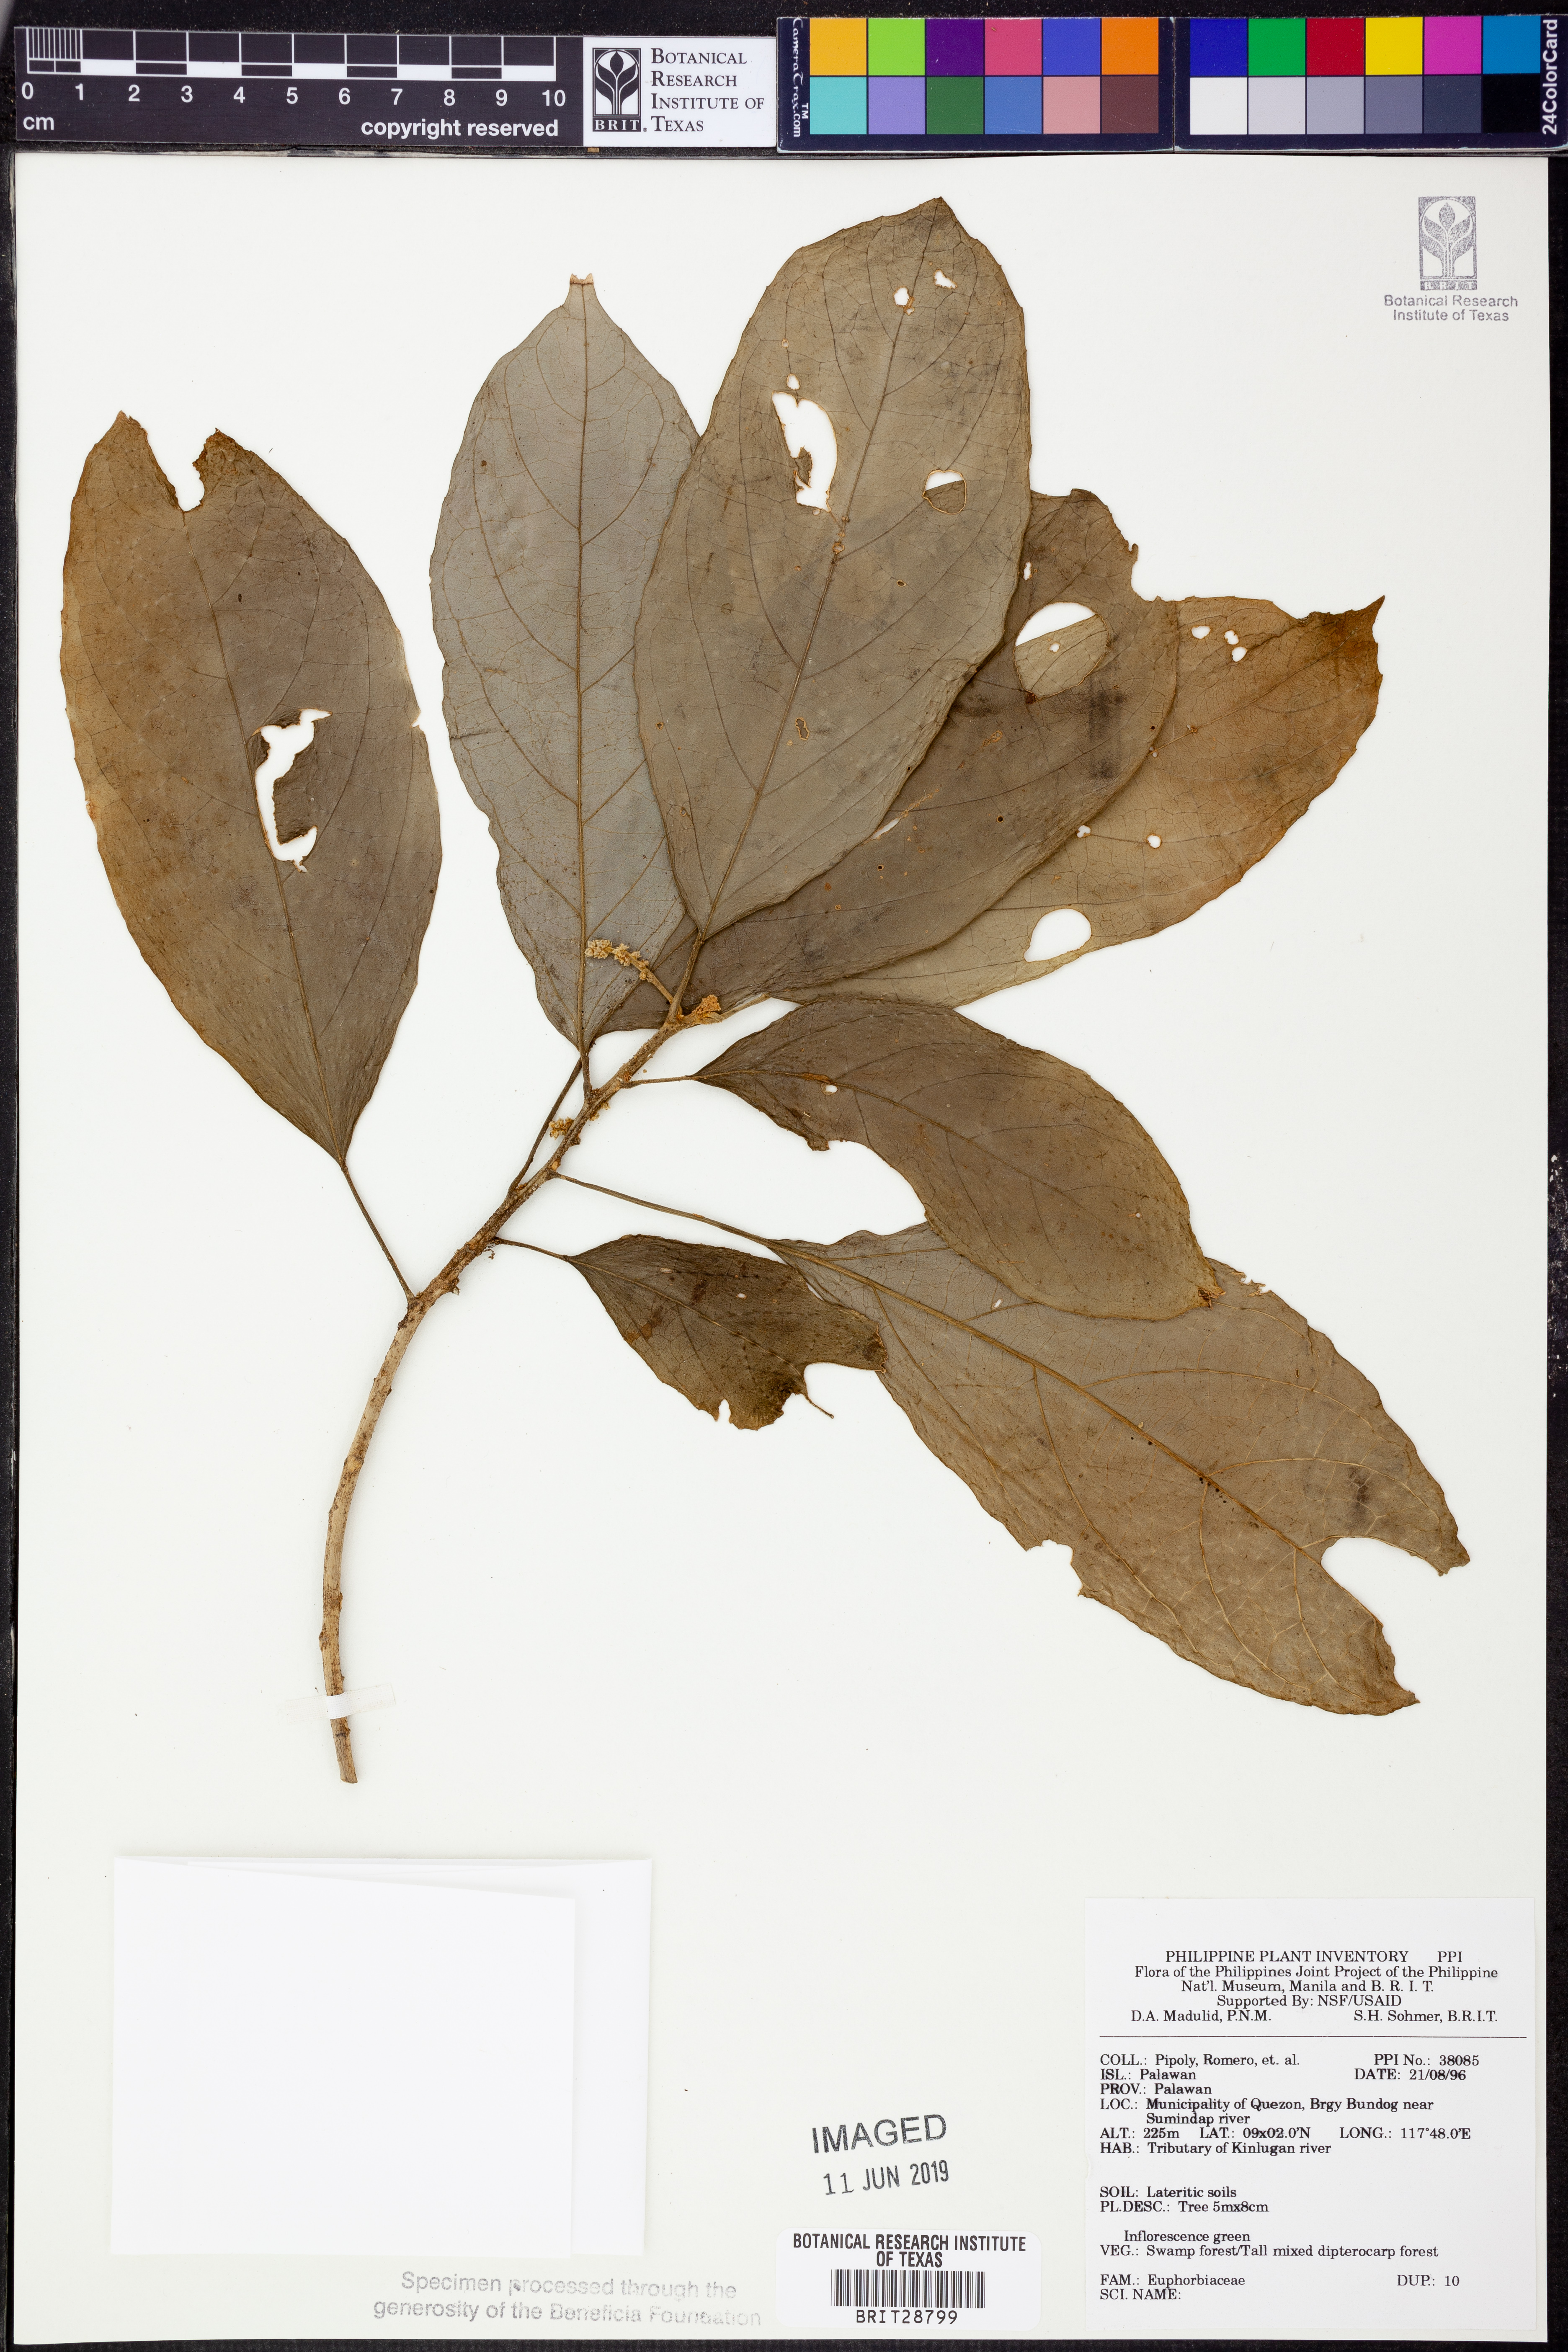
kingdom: Plantae
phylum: Tracheophyta
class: Magnoliopsida
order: Malpighiales
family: Euphorbiaceae
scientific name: Euphorbiaceae
